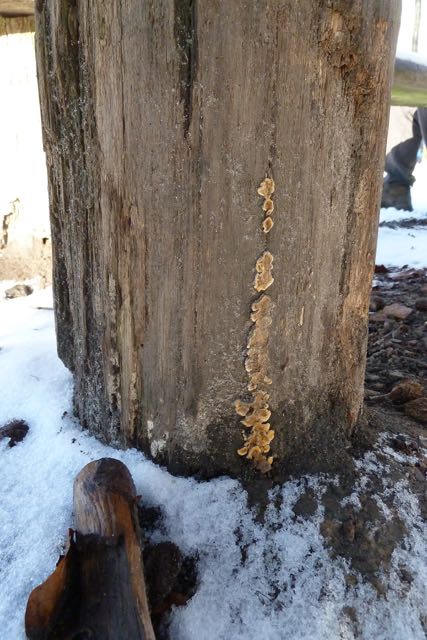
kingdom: Fungi
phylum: Basidiomycota
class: Agaricomycetes
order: Russulales
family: Stereaceae
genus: Stereum
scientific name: Stereum hirsutum
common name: håret lædersvamp
